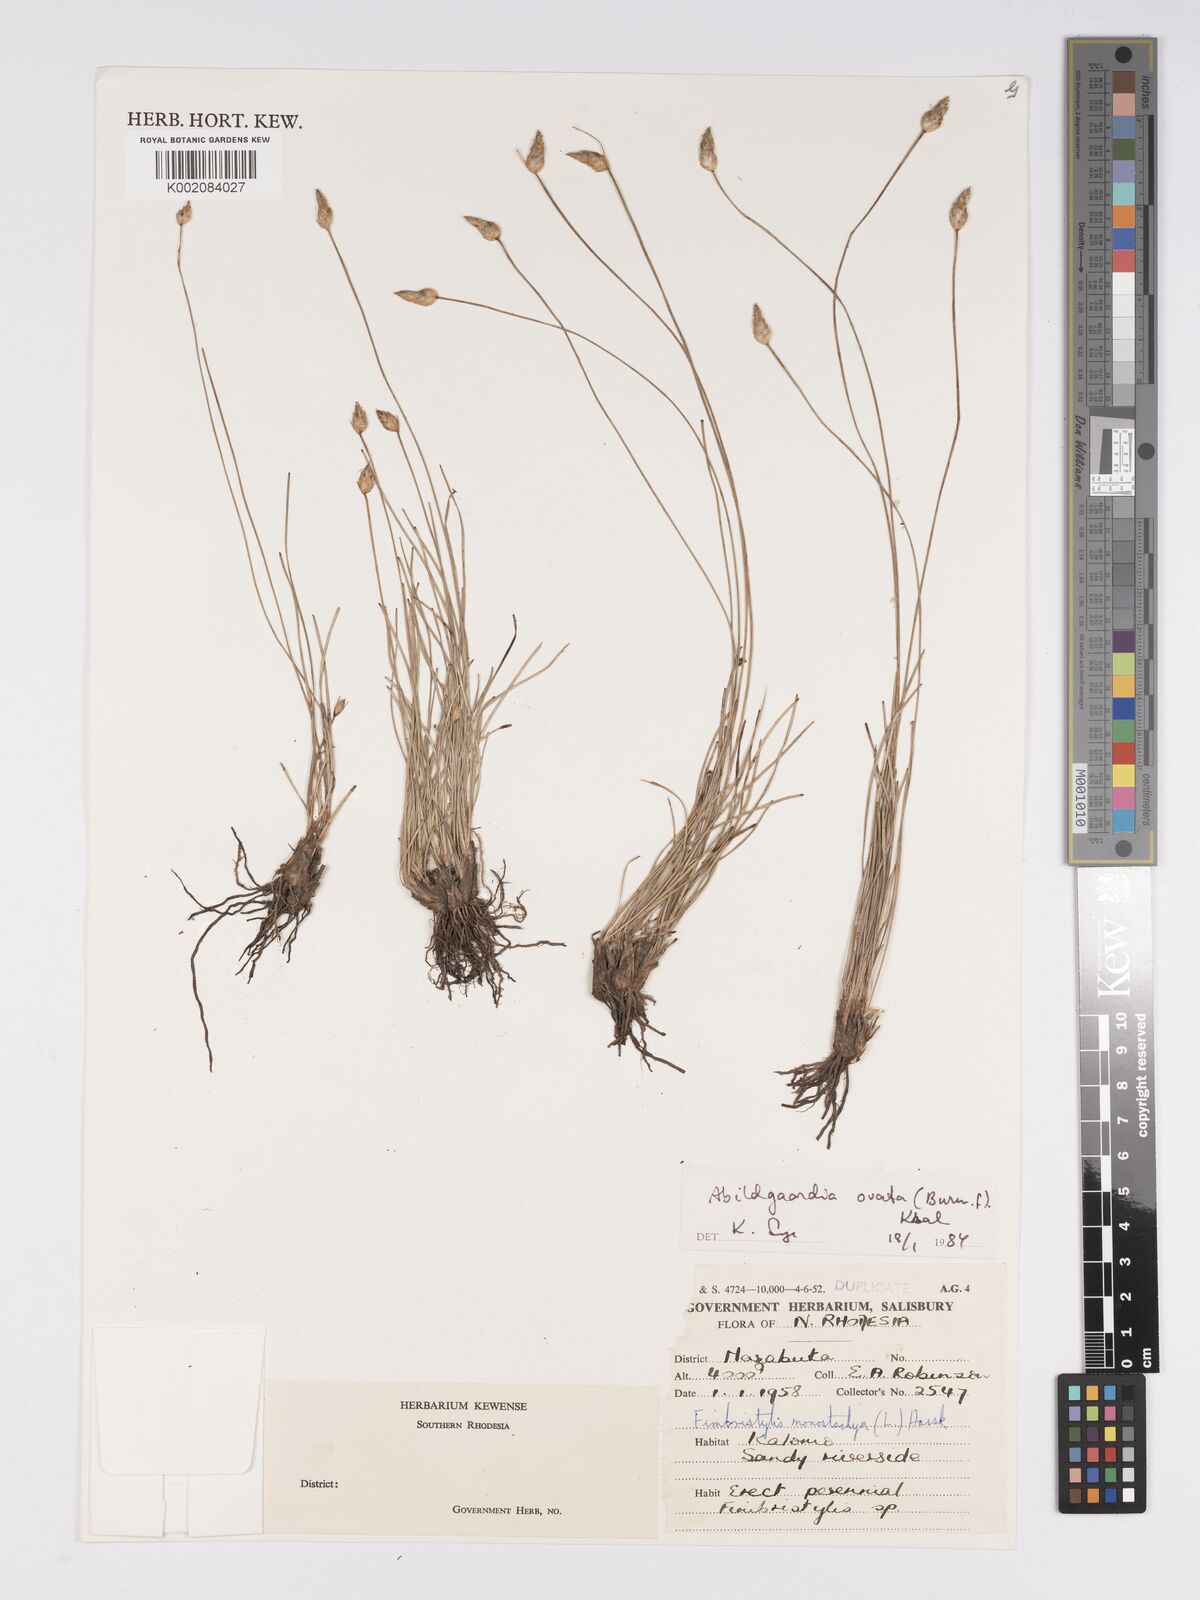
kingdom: Plantae
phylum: Tracheophyta
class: Liliopsida
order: Poales
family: Cyperaceae
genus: Bulbostylis
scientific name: Bulbostylis
